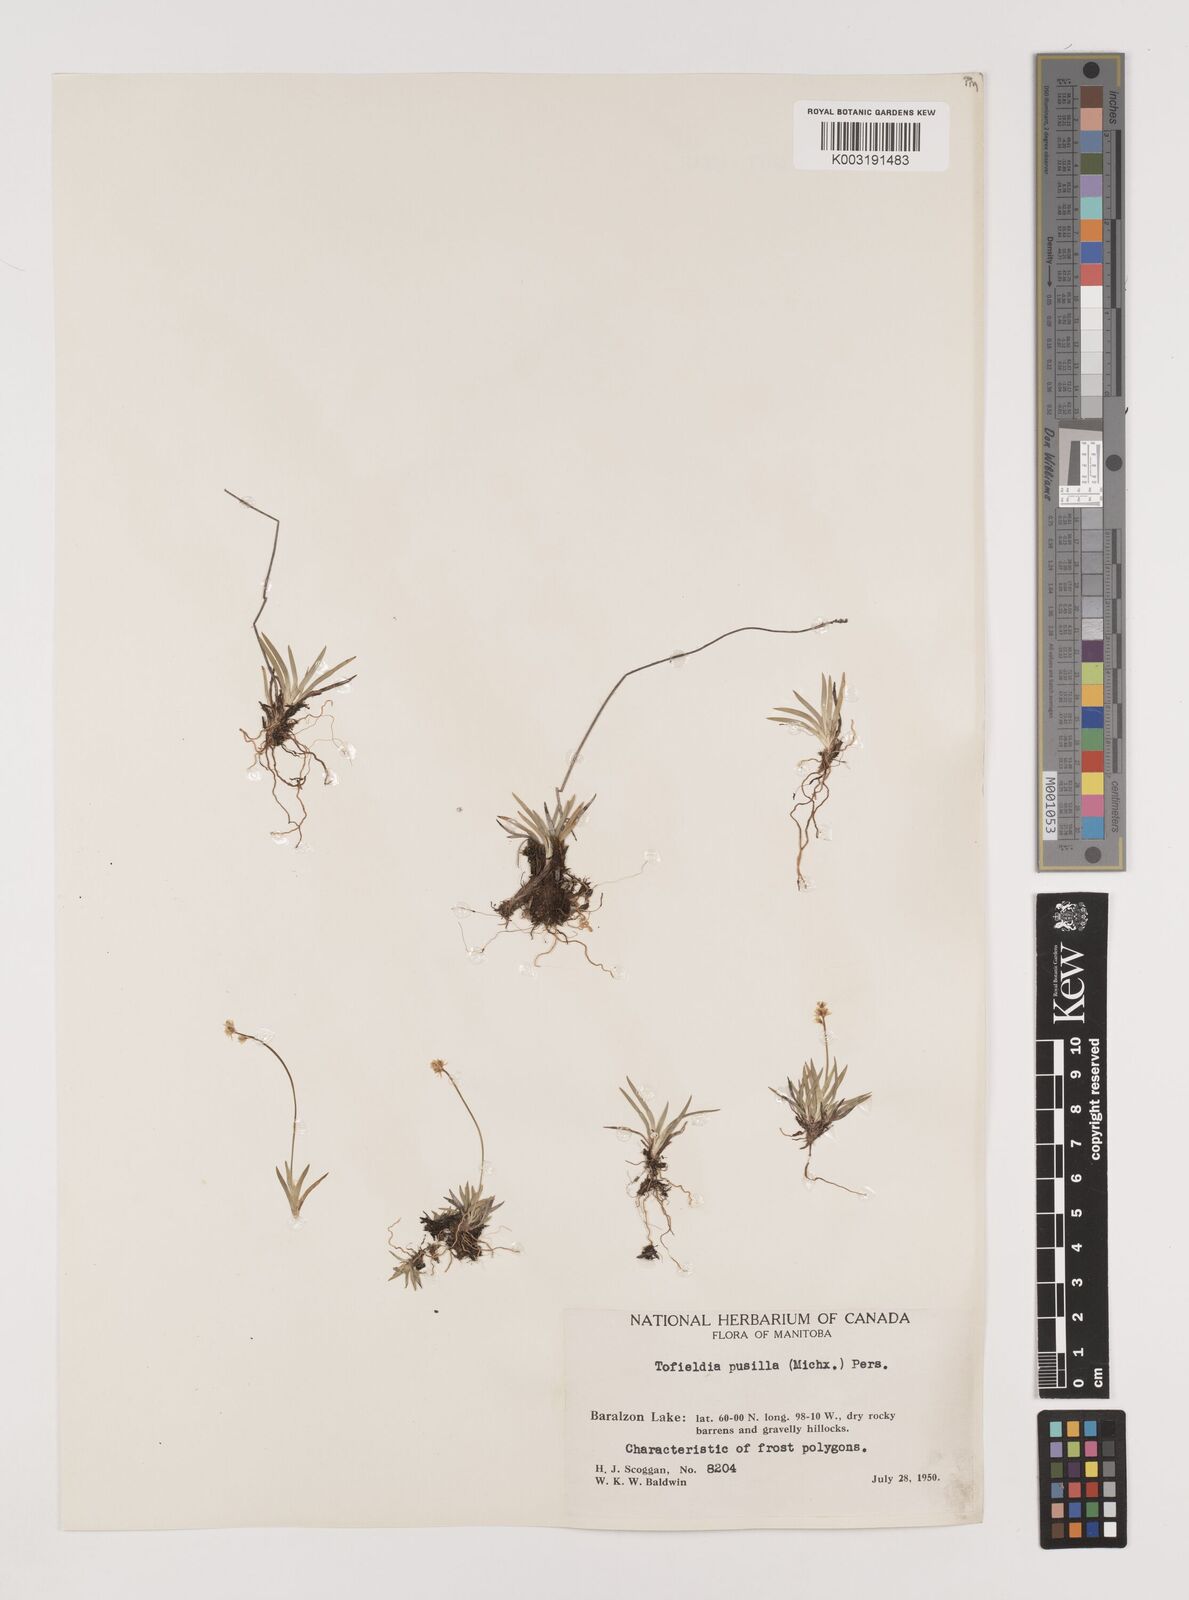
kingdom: Plantae
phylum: Tracheophyta
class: Liliopsida
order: Alismatales
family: Tofieldiaceae
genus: Tofieldia
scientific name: Tofieldia pusilla
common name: Scottish false asphodel
